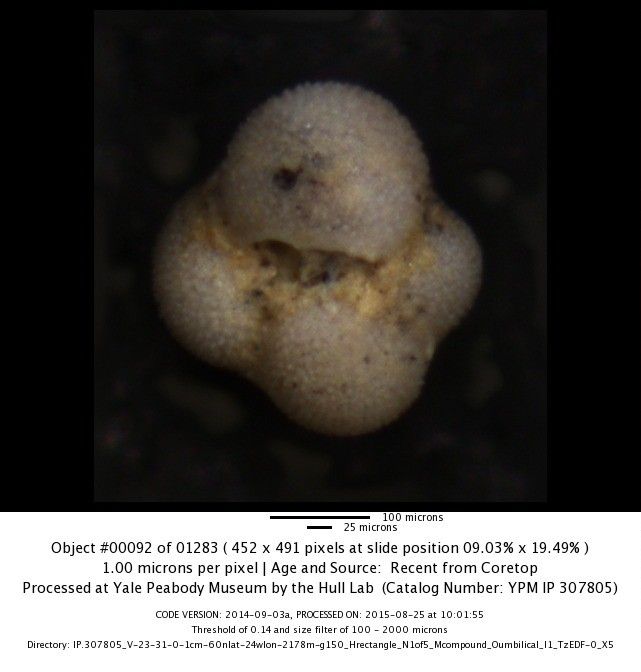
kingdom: Chromista
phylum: Foraminifera
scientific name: Foraminifera
